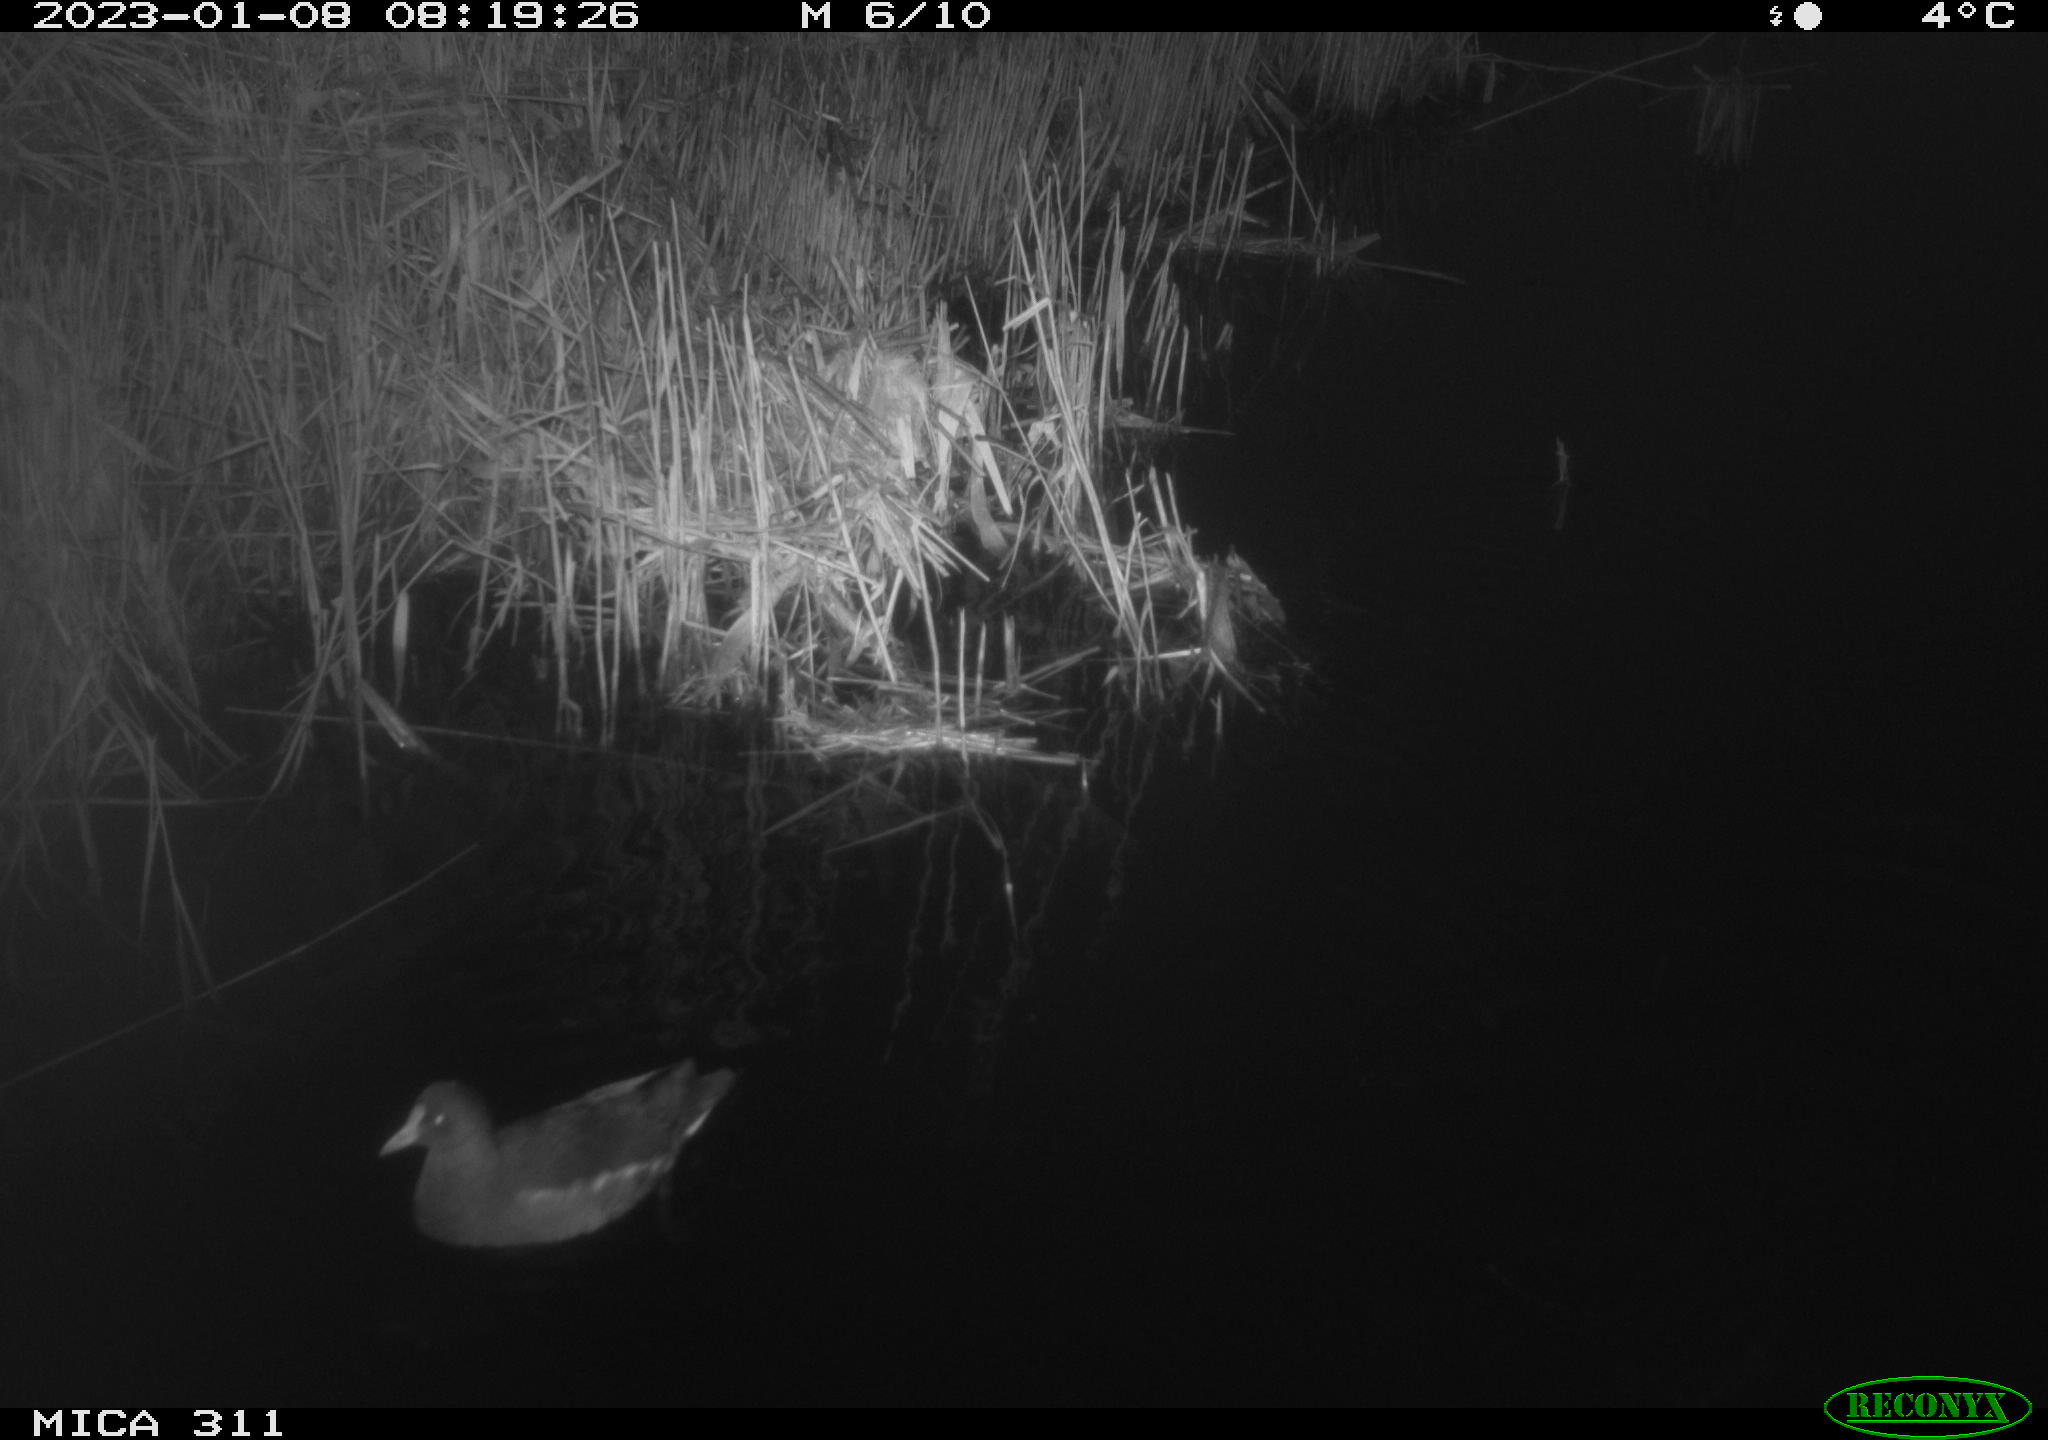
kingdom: Animalia
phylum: Chordata
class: Aves
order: Gruiformes
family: Rallidae
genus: Gallinula
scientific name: Gallinula chloropus
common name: Common moorhen
